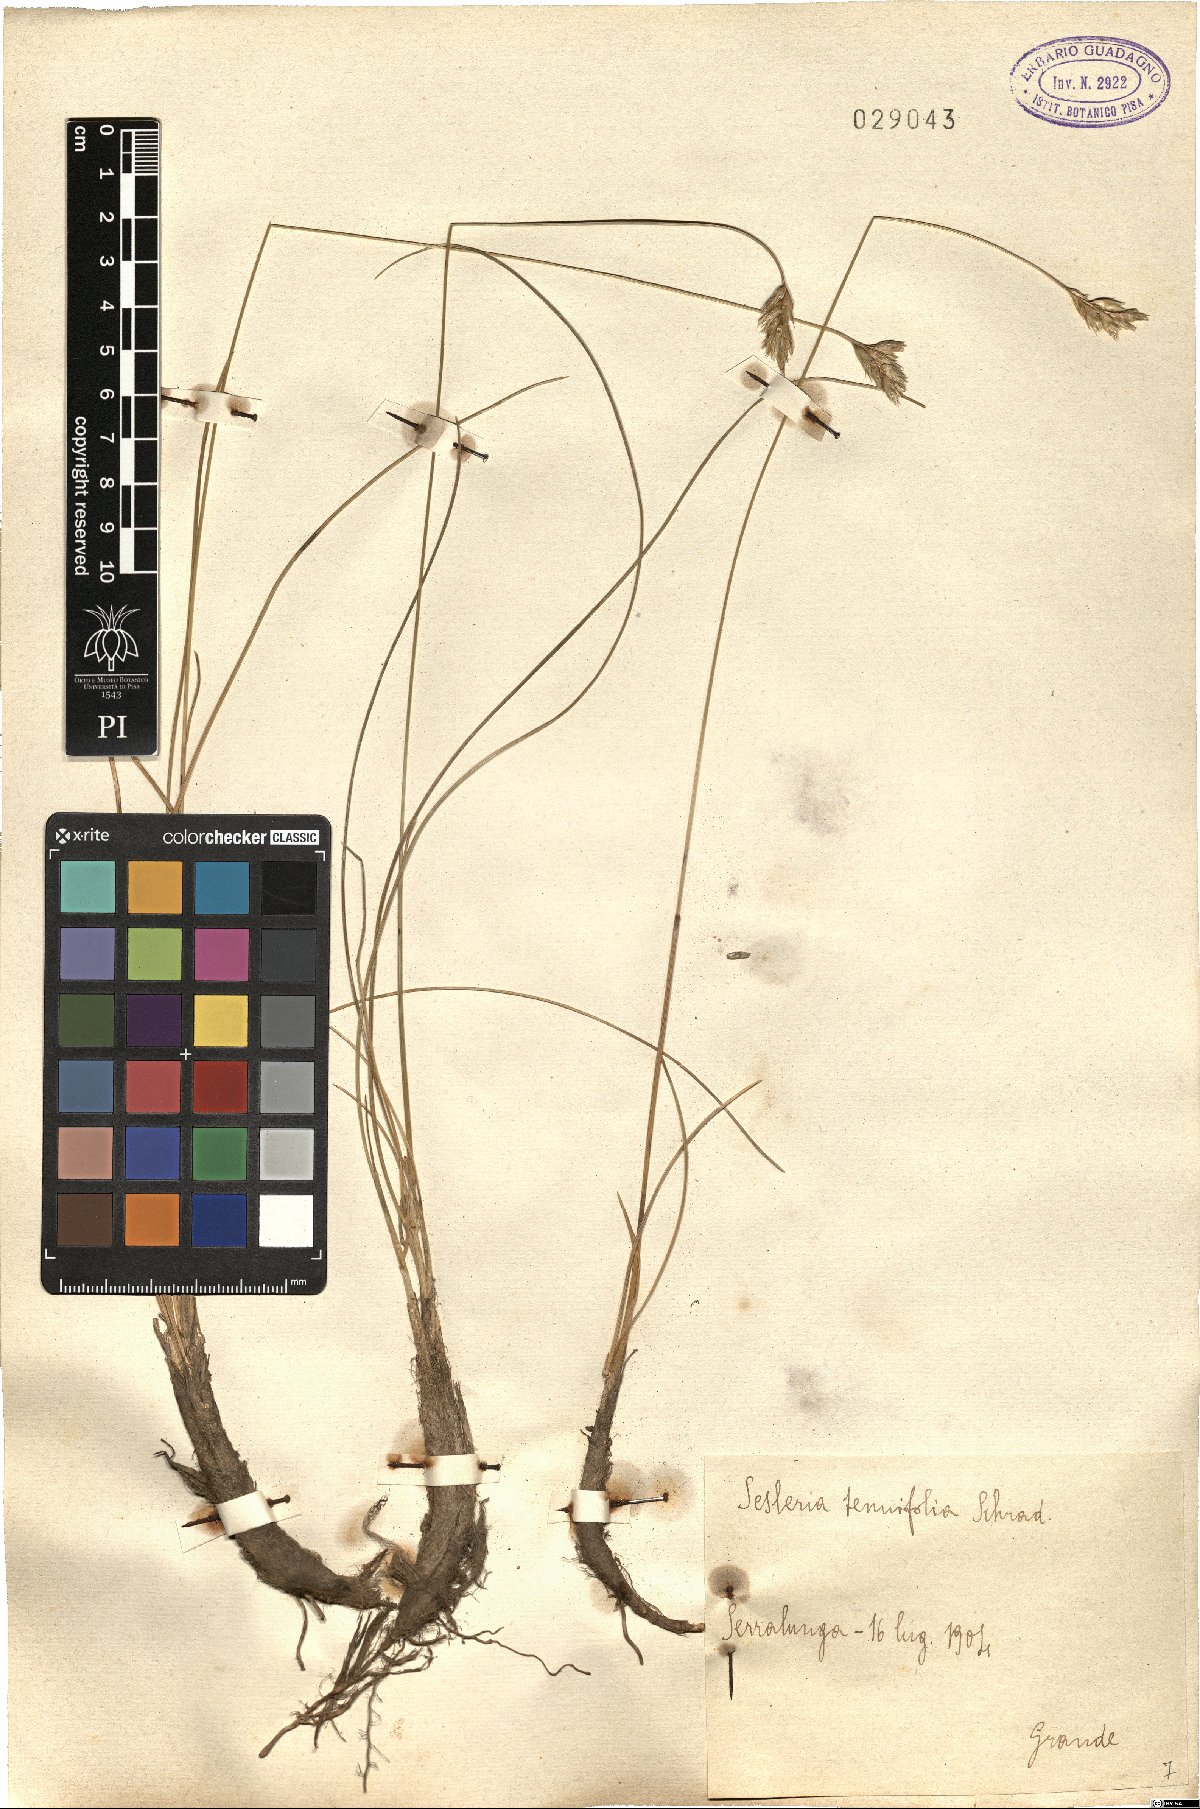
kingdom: Plantae
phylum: Tracheophyta
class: Liliopsida
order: Poales
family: Poaceae
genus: Sesleria
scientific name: Sesleria juncifolia
